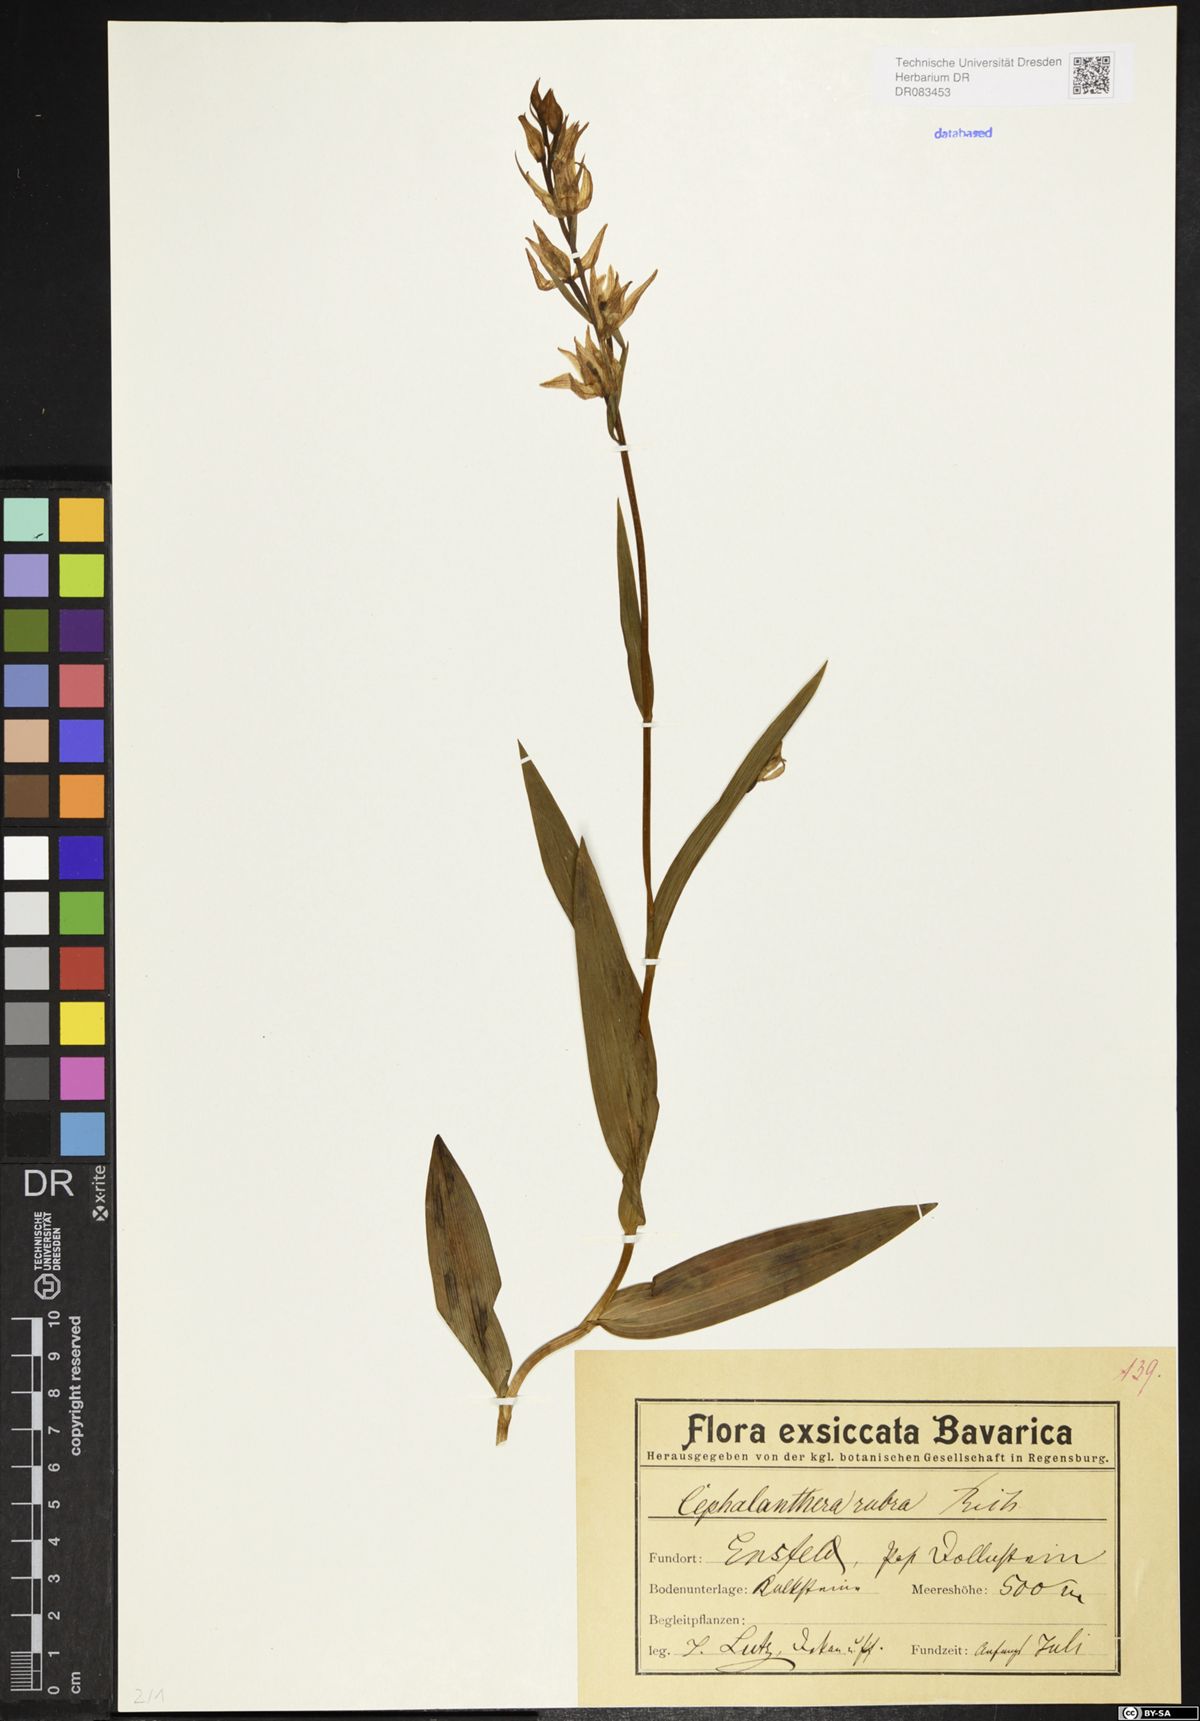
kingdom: Plantae
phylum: Tracheophyta
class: Liliopsida
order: Asparagales
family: Orchidaceae
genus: Cephalanthera
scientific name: Cephalanthera rubra
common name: Red helleborine
